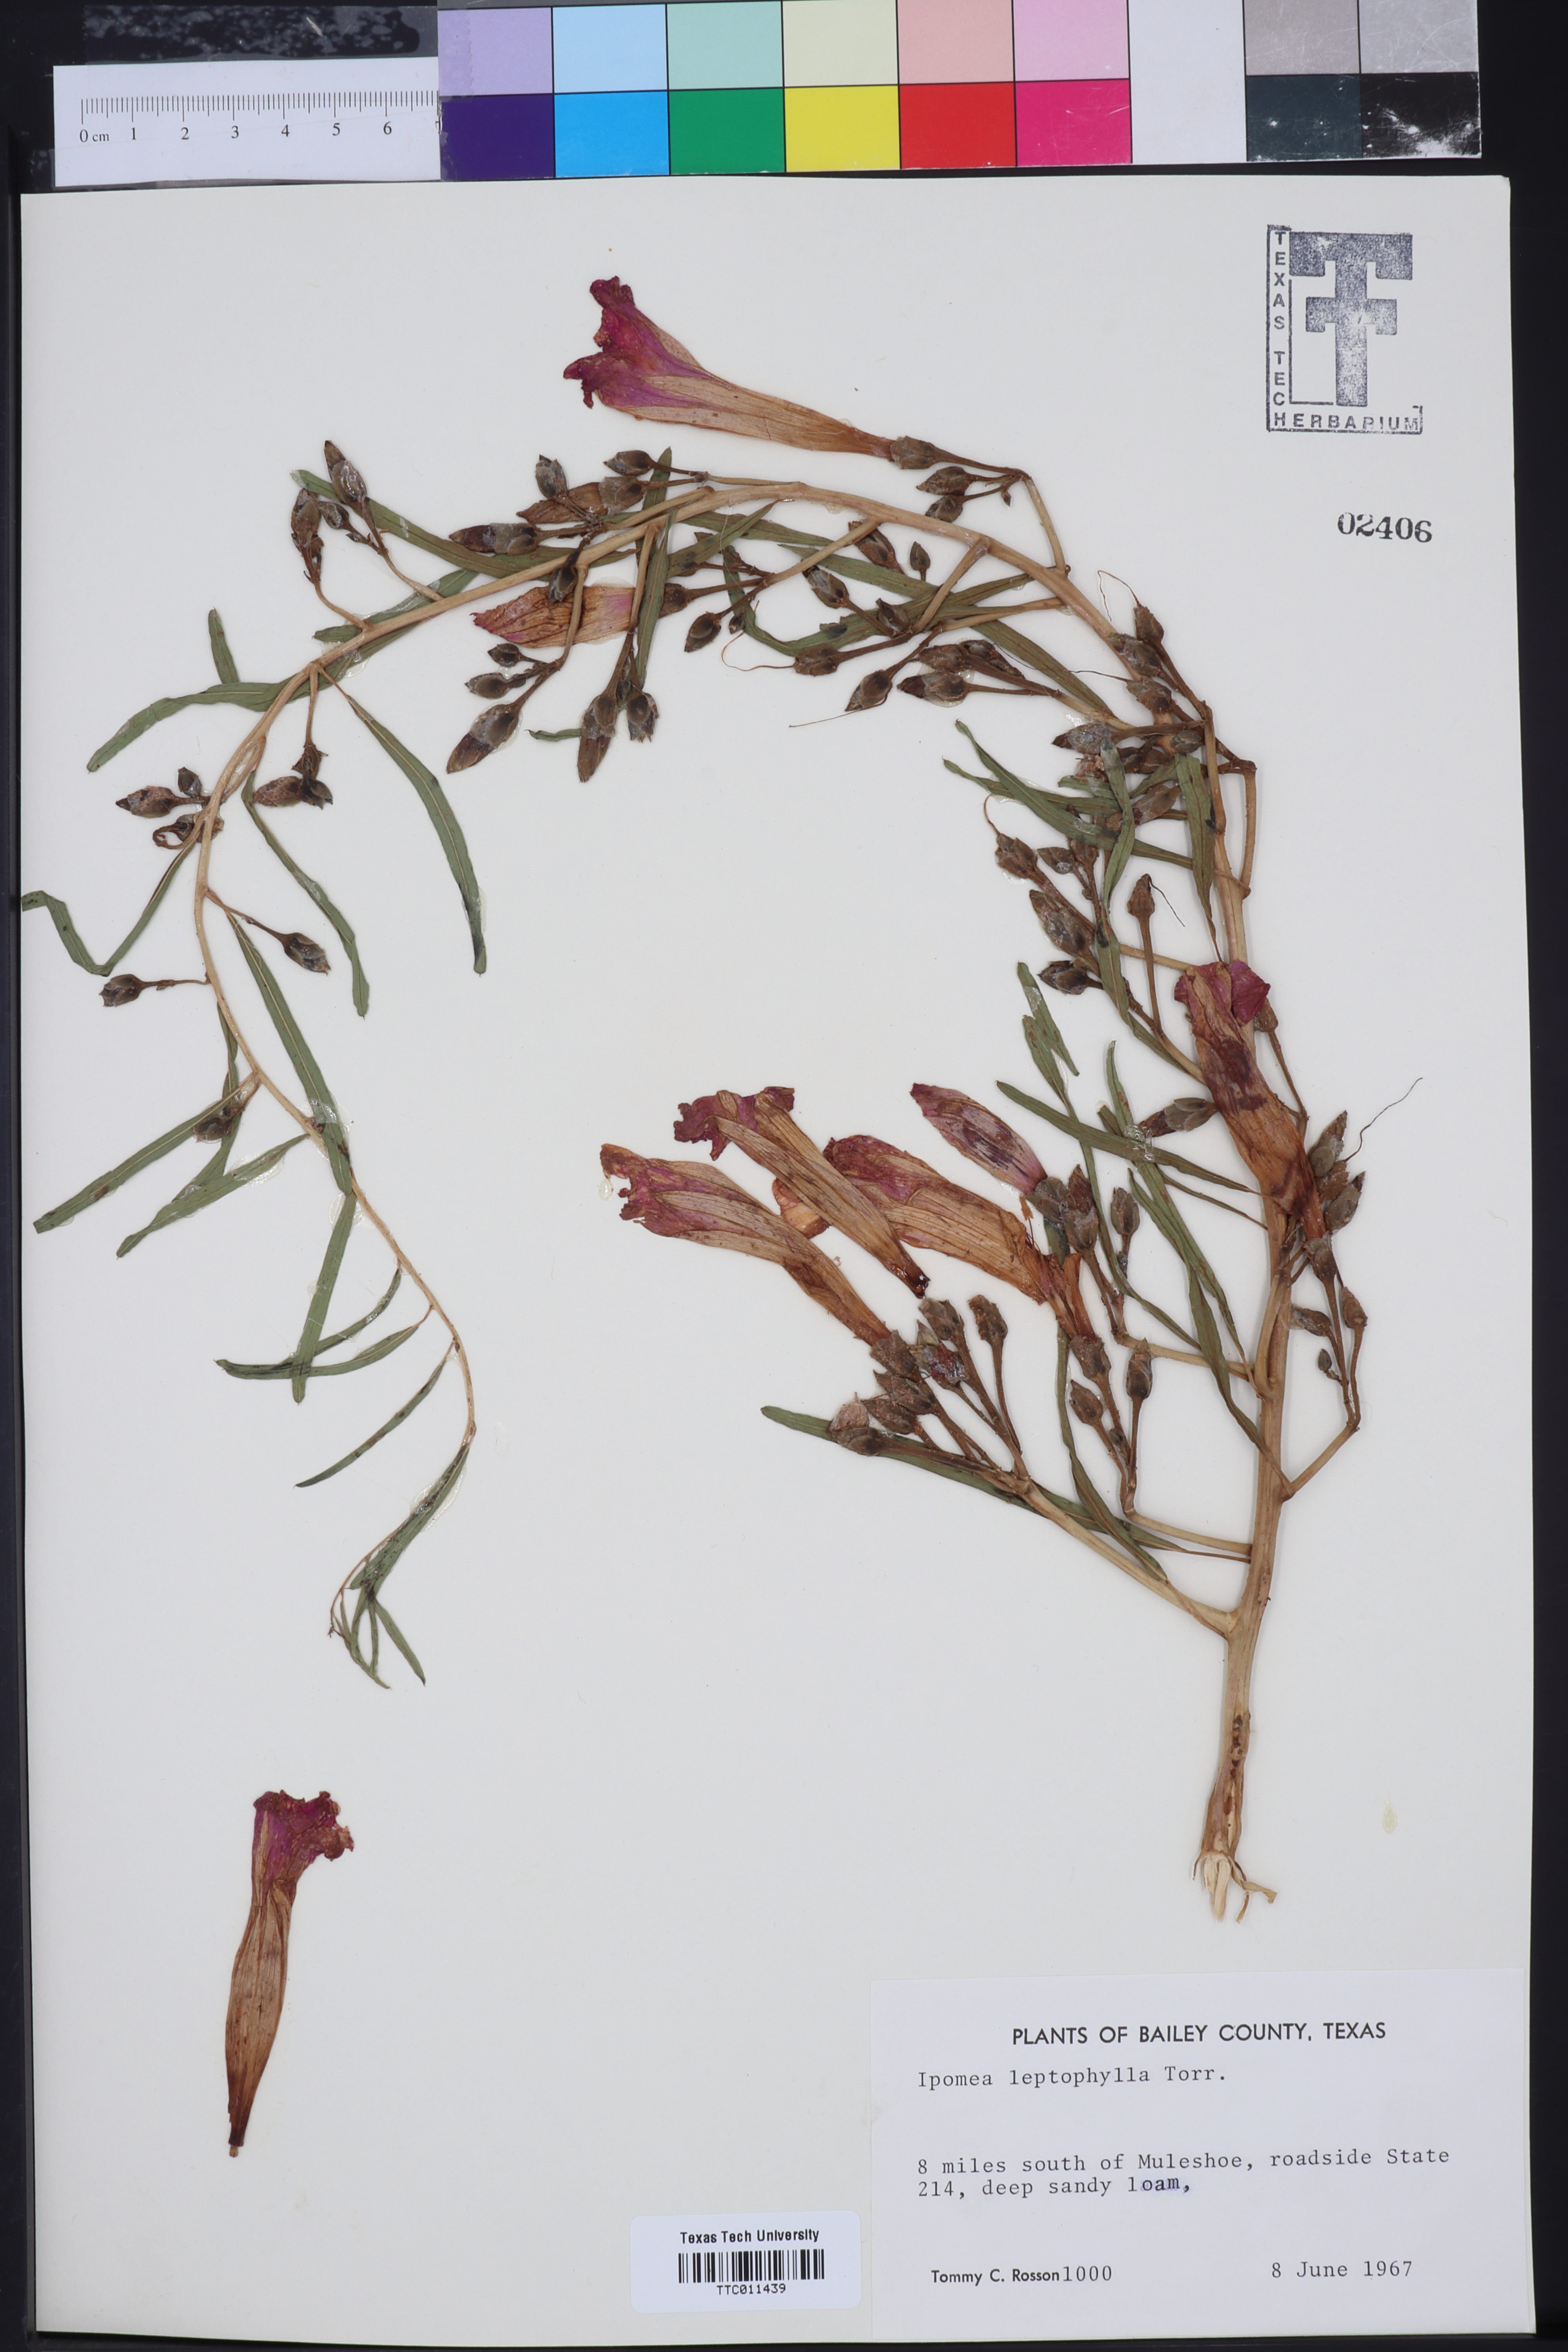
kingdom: Plantae
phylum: Tracheophyta
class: Magnoliopsida
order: Solanales
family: Convolvulaceae
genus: Ipomoea
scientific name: Ipomoea leptophylla
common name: Bush moonflower
